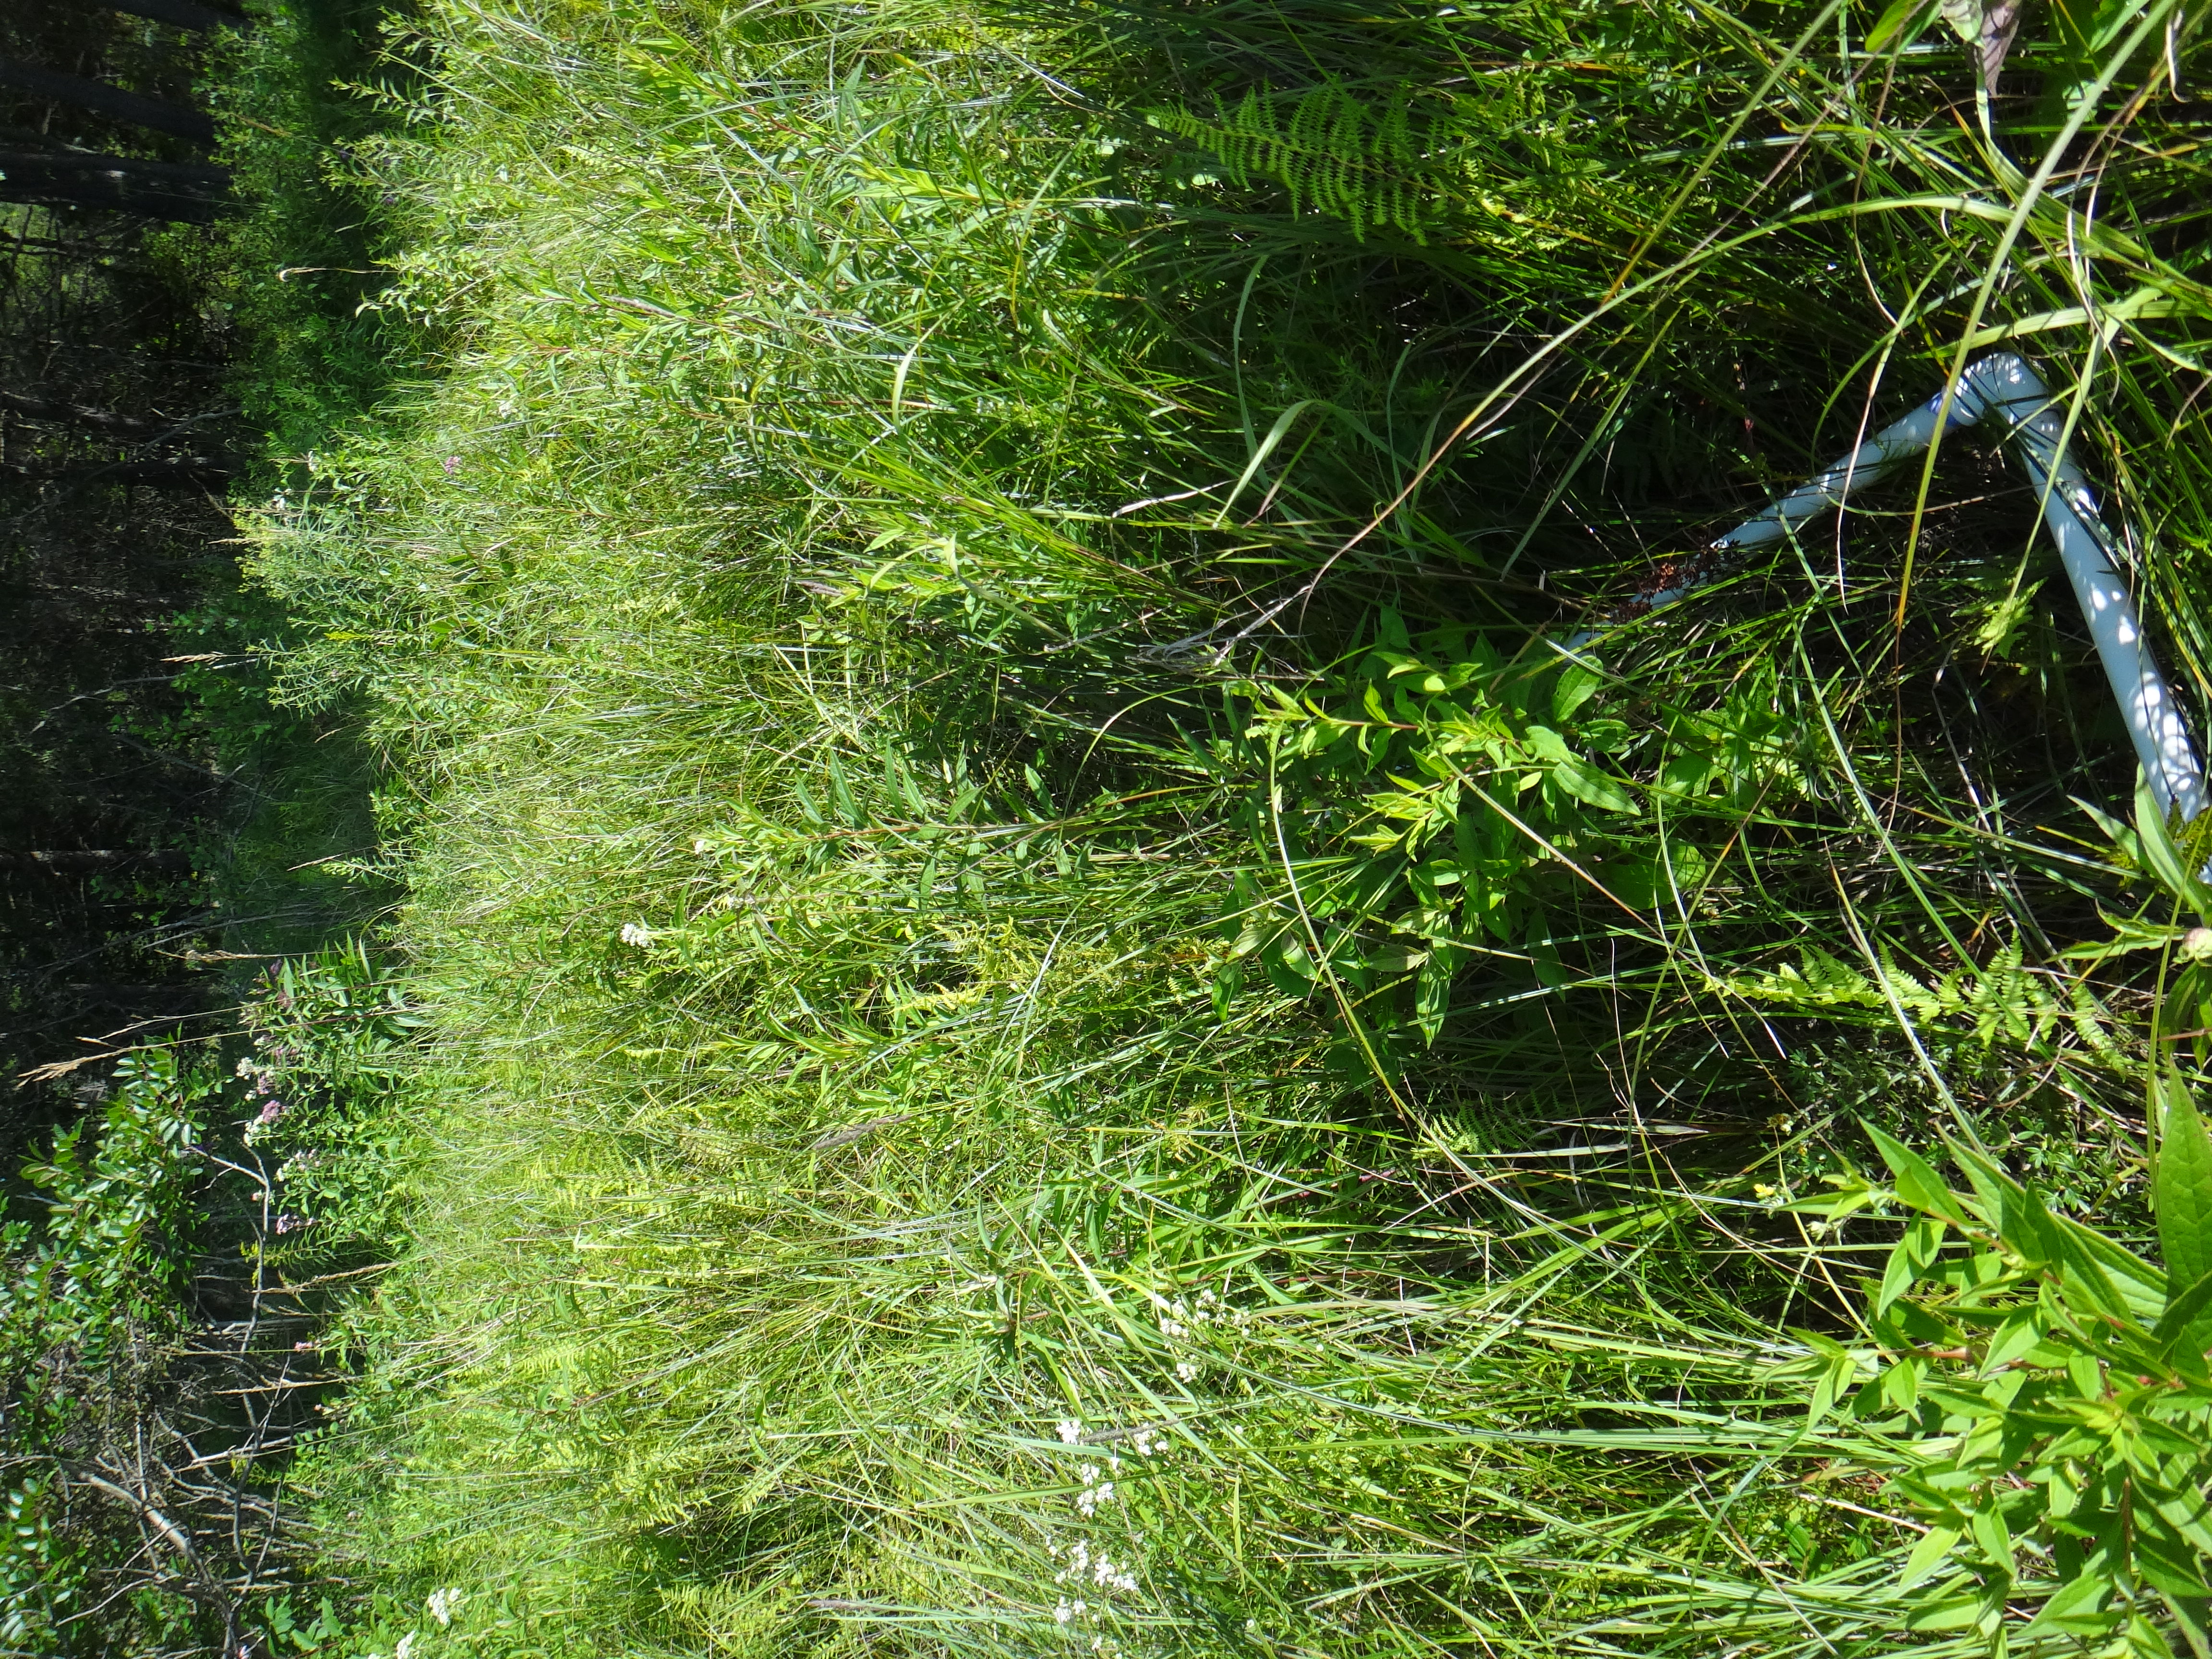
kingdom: Plantae
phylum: Tracheophyta
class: Magnoliopsida
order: Rosales
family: Rosaceae
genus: Dasiphora
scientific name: Dasiphora fruticosa
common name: Shrubby cinquefoil
